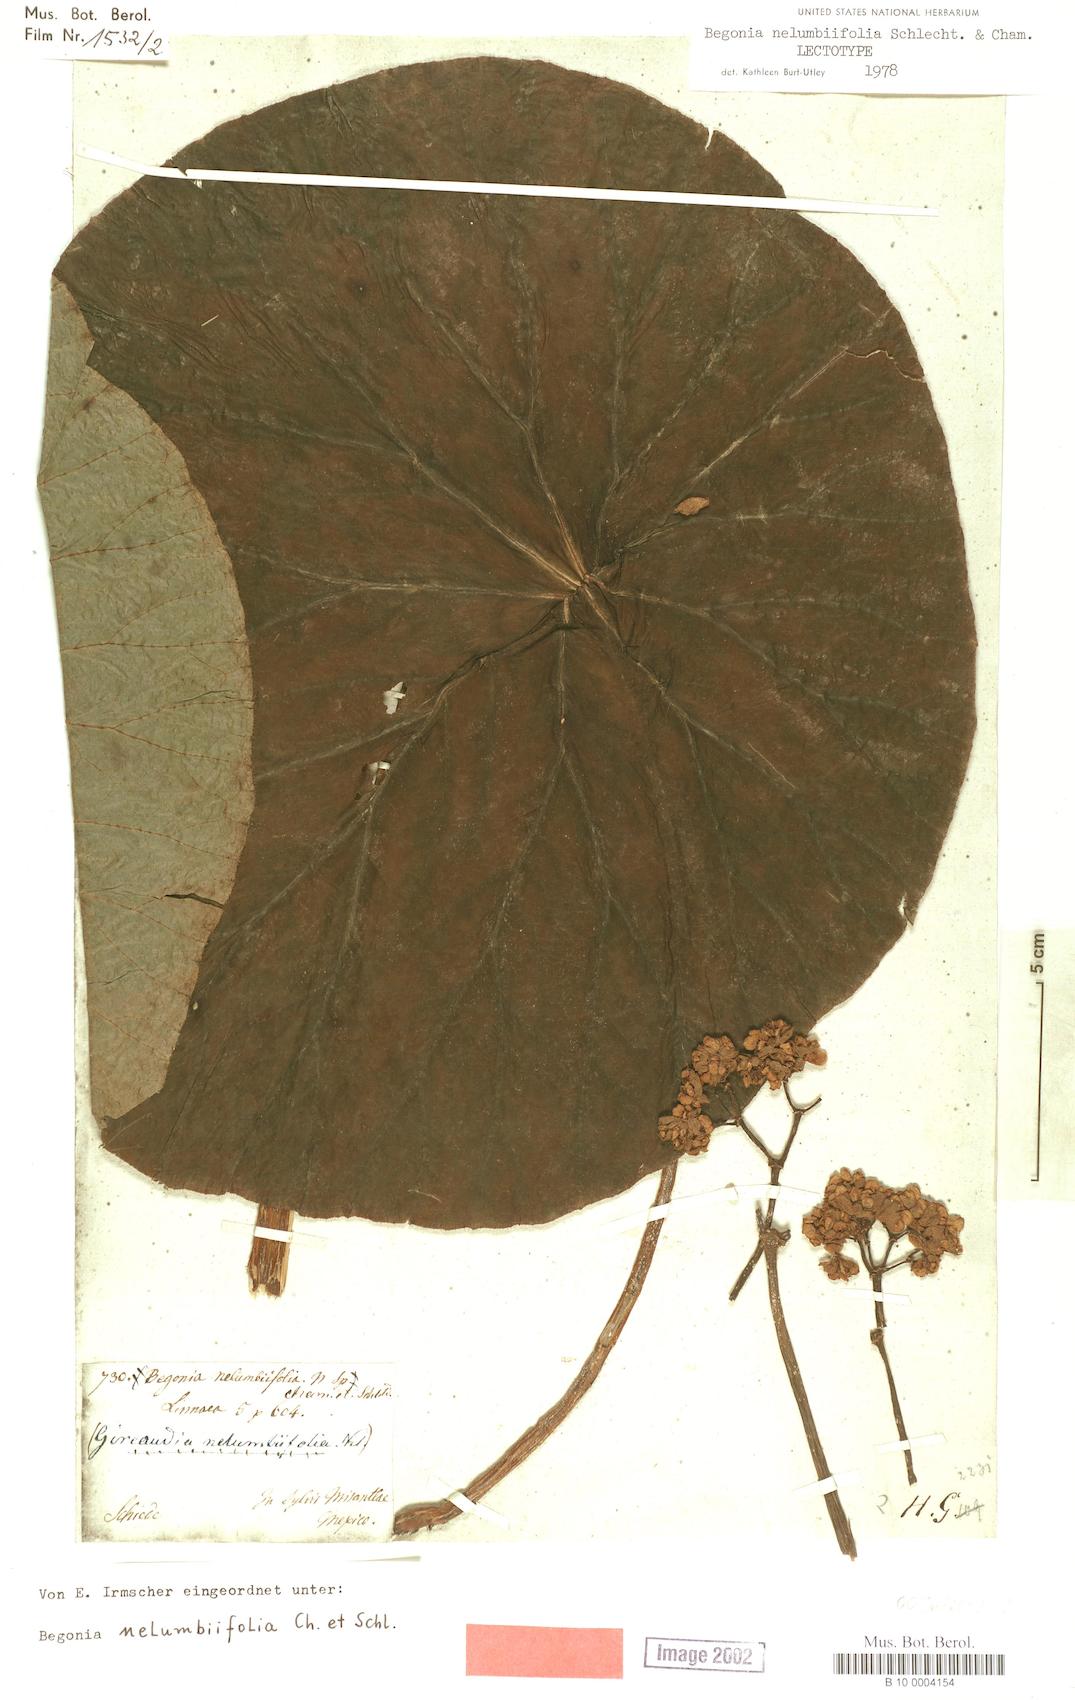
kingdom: Plantae
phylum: Tracheophyta
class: Magnoliopsida
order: Cucurbitales
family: Begoniaceae
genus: Begonia
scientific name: Begonia nelumbiifolia
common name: Lilypad begonia
